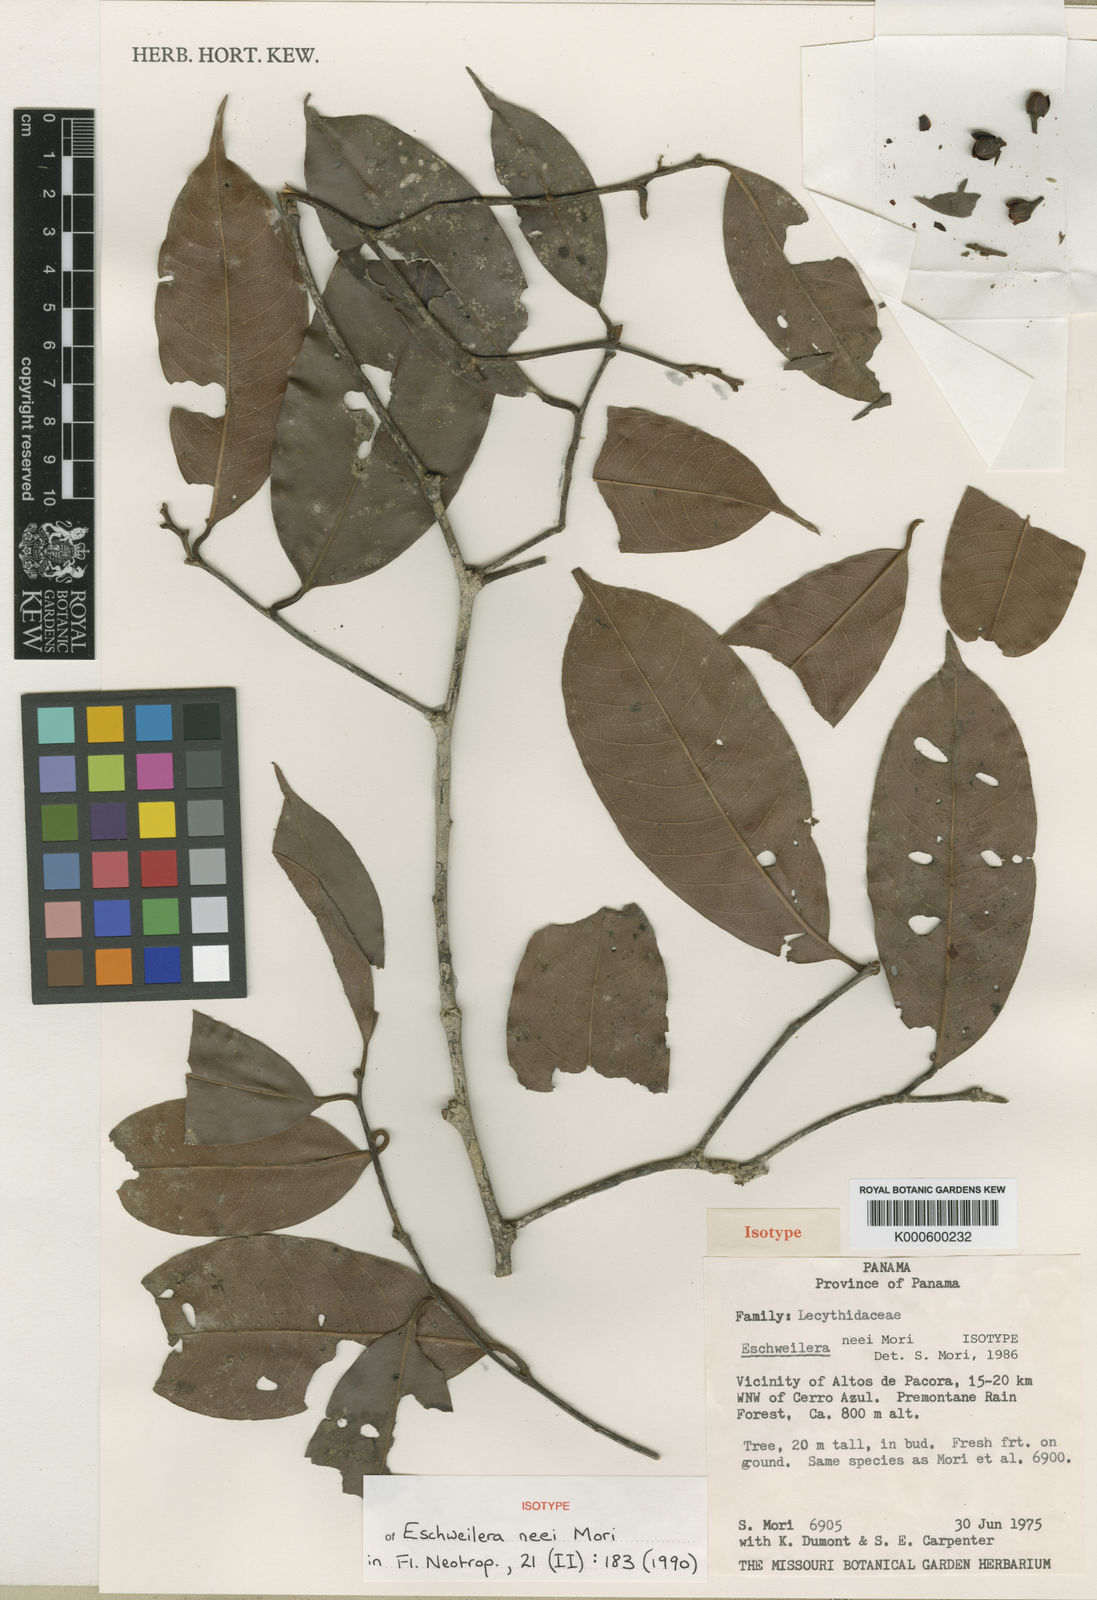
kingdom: Plantae
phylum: Tracheophyta
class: Magnoliopsida
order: Ericales
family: Lecythidaceae
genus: Eschweilera
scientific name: Eschweilera neei
